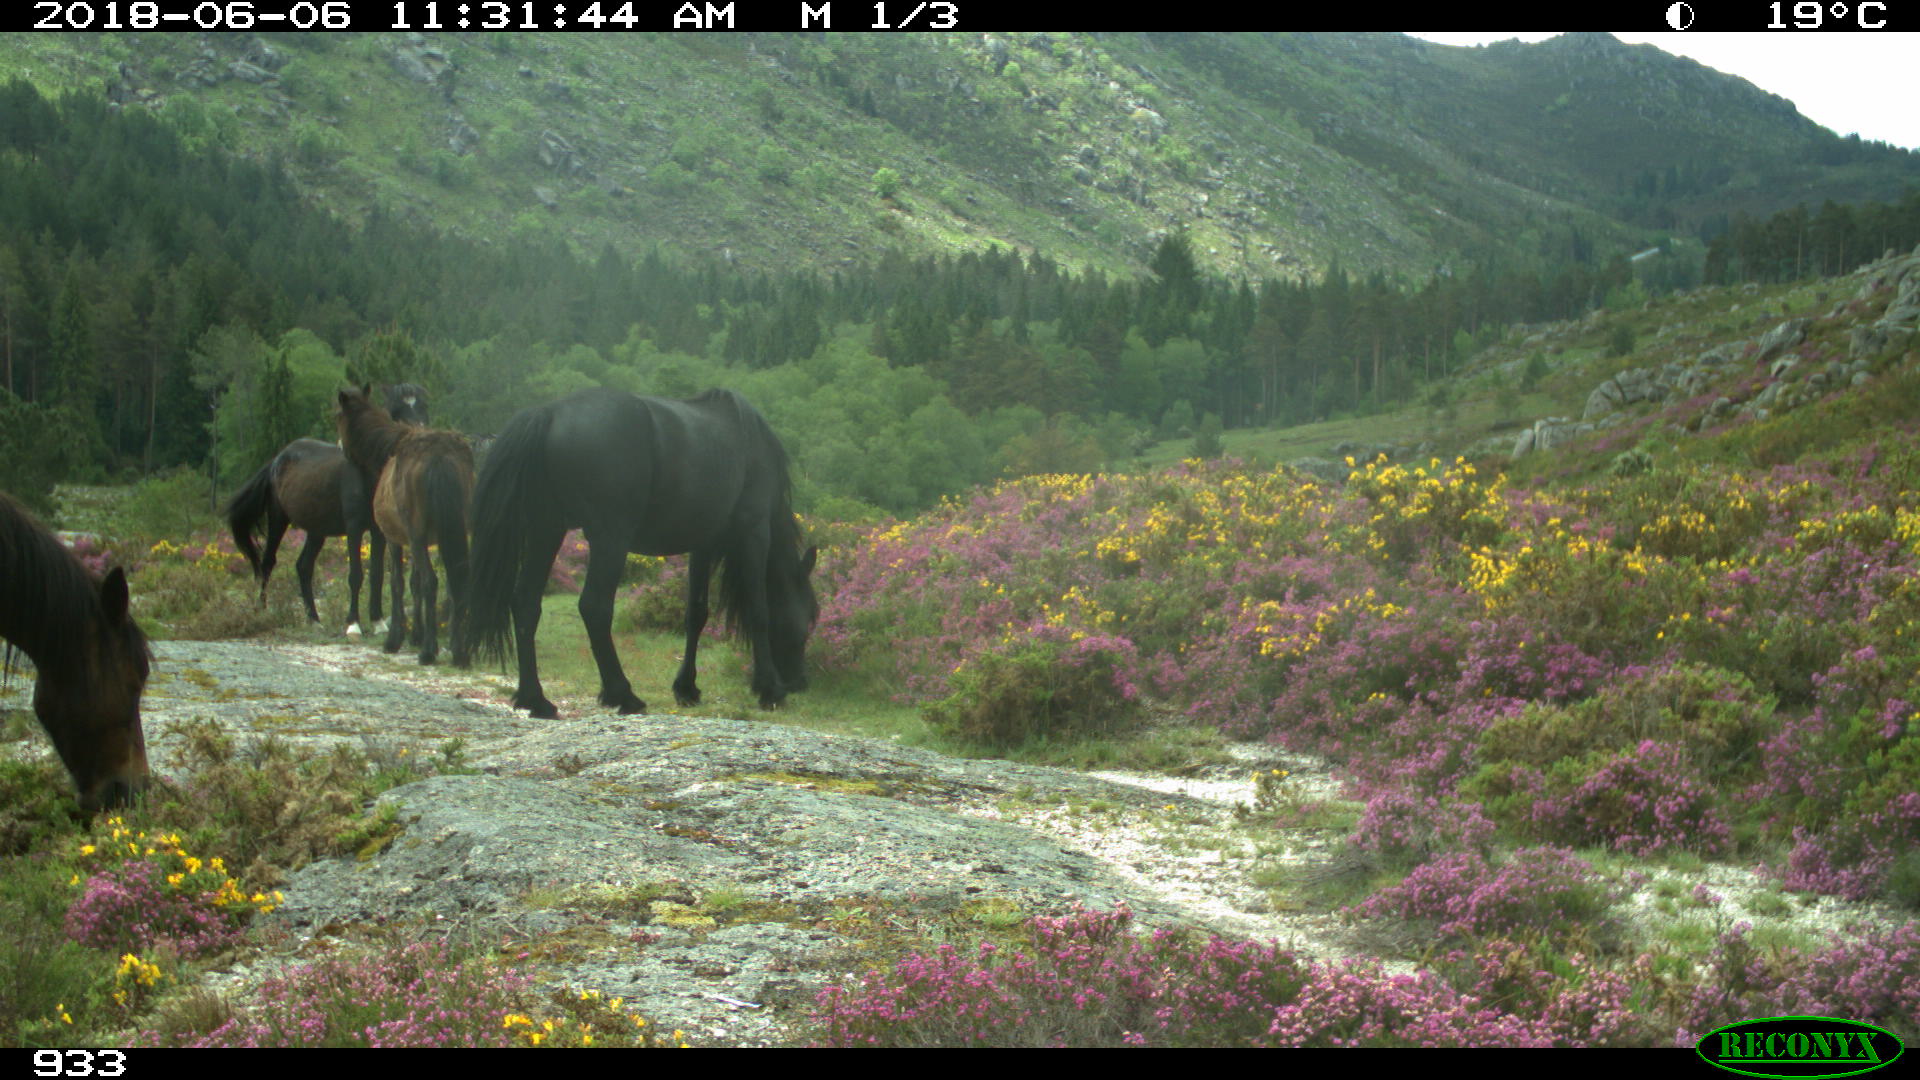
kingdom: Animalia
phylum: Chordata
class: Mammalia
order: Perissodactyla
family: Equidae
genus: Equus
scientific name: Equus caballus
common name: Horse
